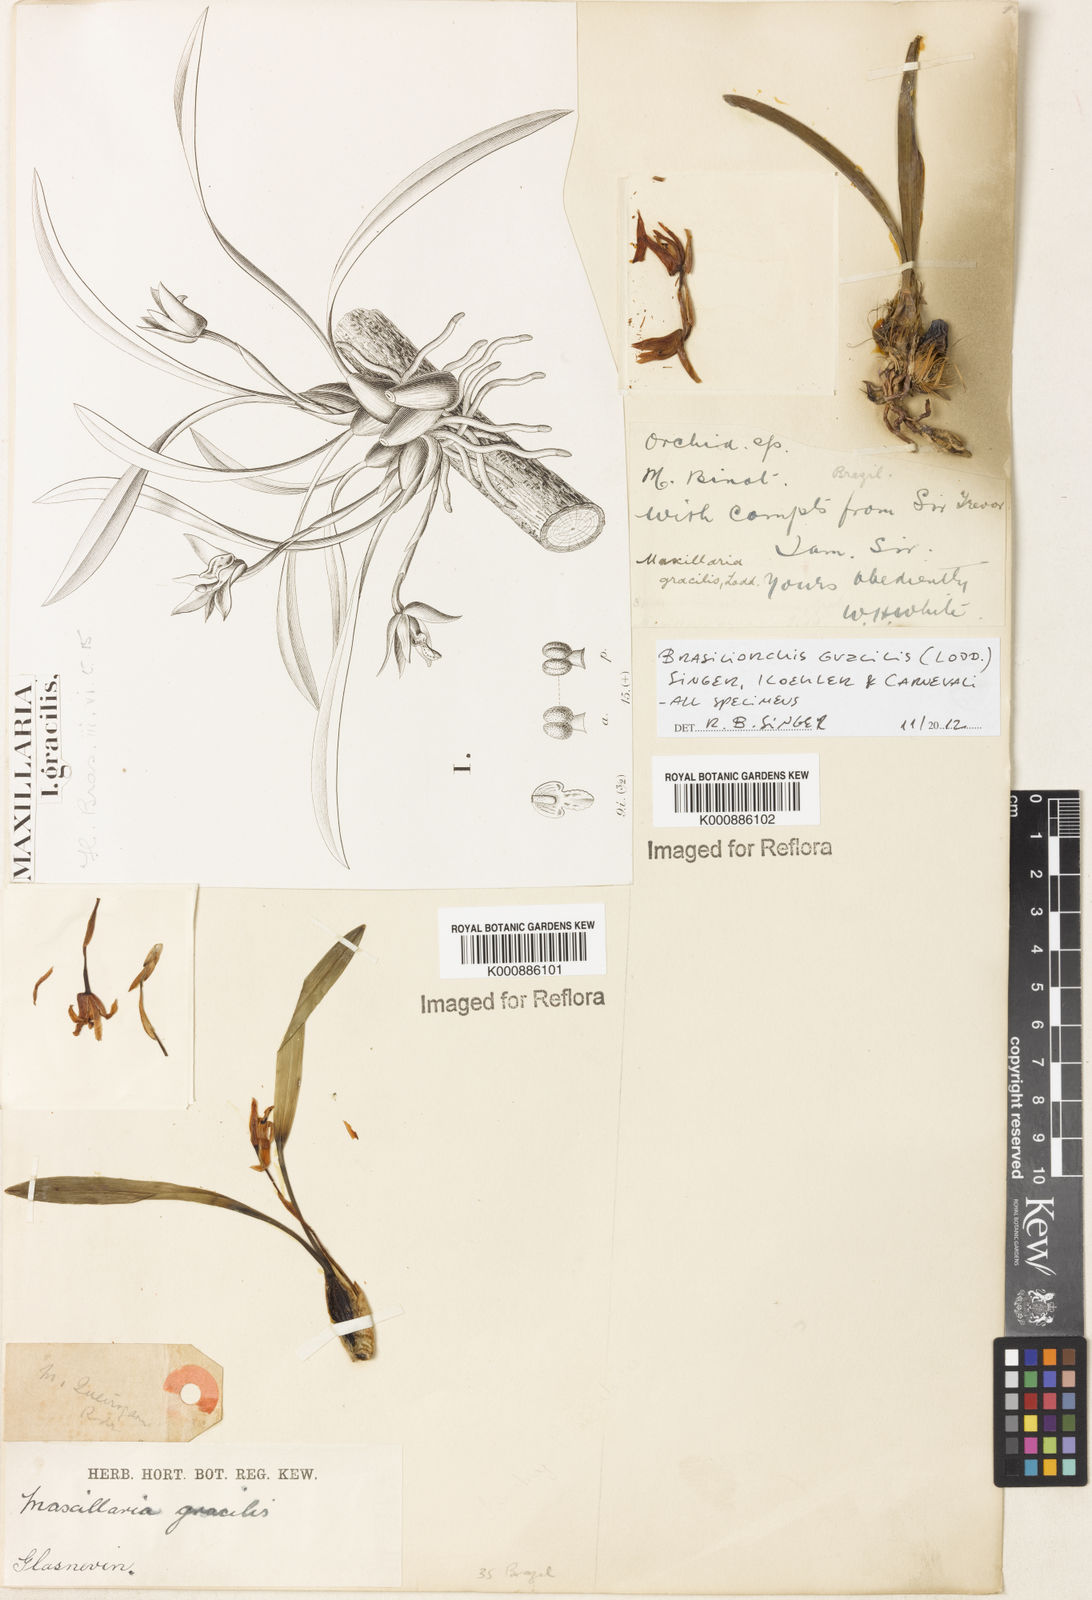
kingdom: Plantae
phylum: Tracheophyta
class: Liliopsida
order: Asparagales
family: Orchidaceae
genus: Maxillaria
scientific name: Maxillaria
